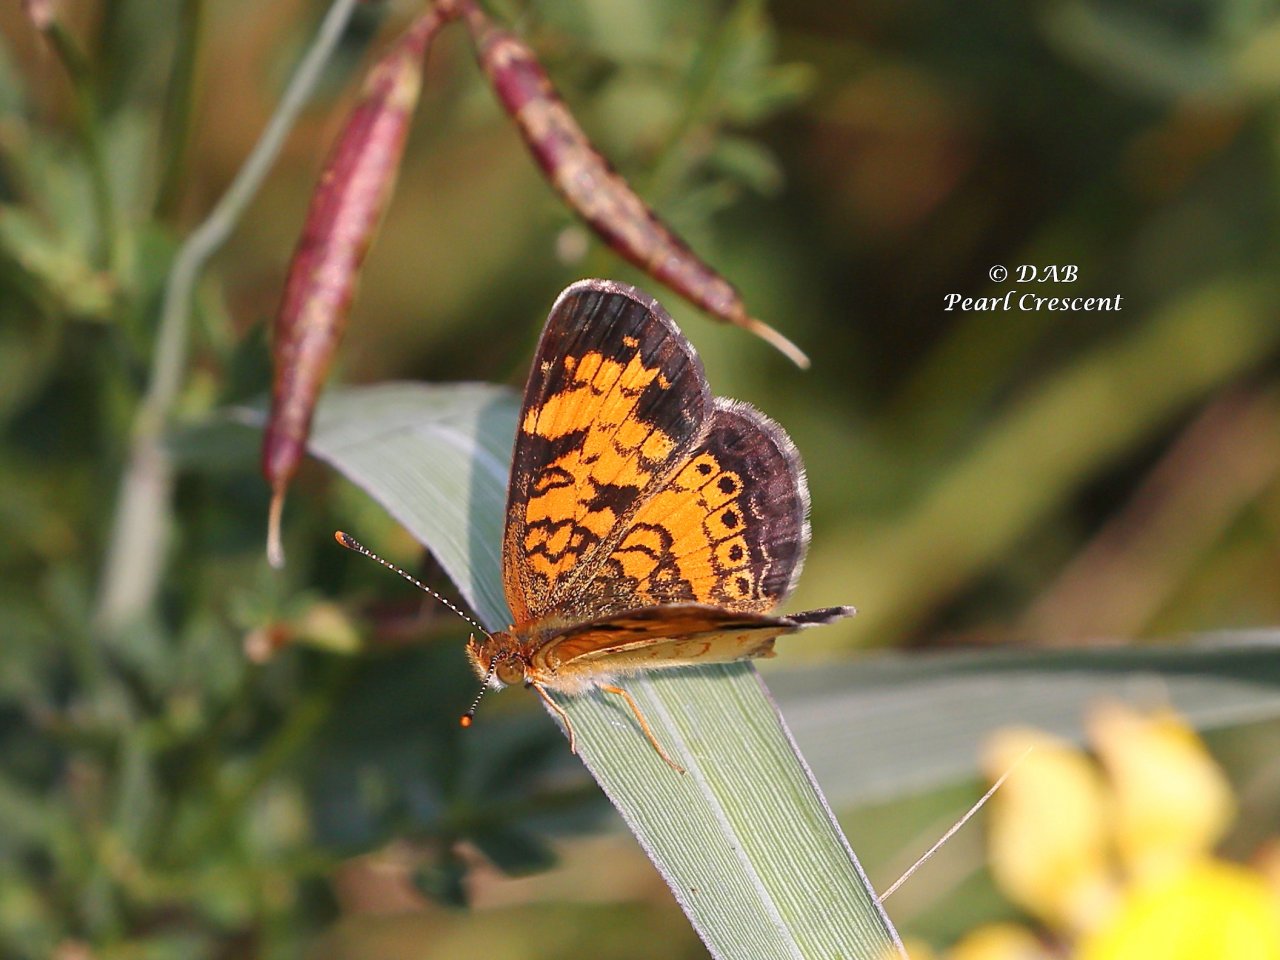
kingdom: Animalia
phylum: Arthropoda
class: Insecta
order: Lepidoptera
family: Nymphalidae
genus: Phyciodes
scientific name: Phyciodes
